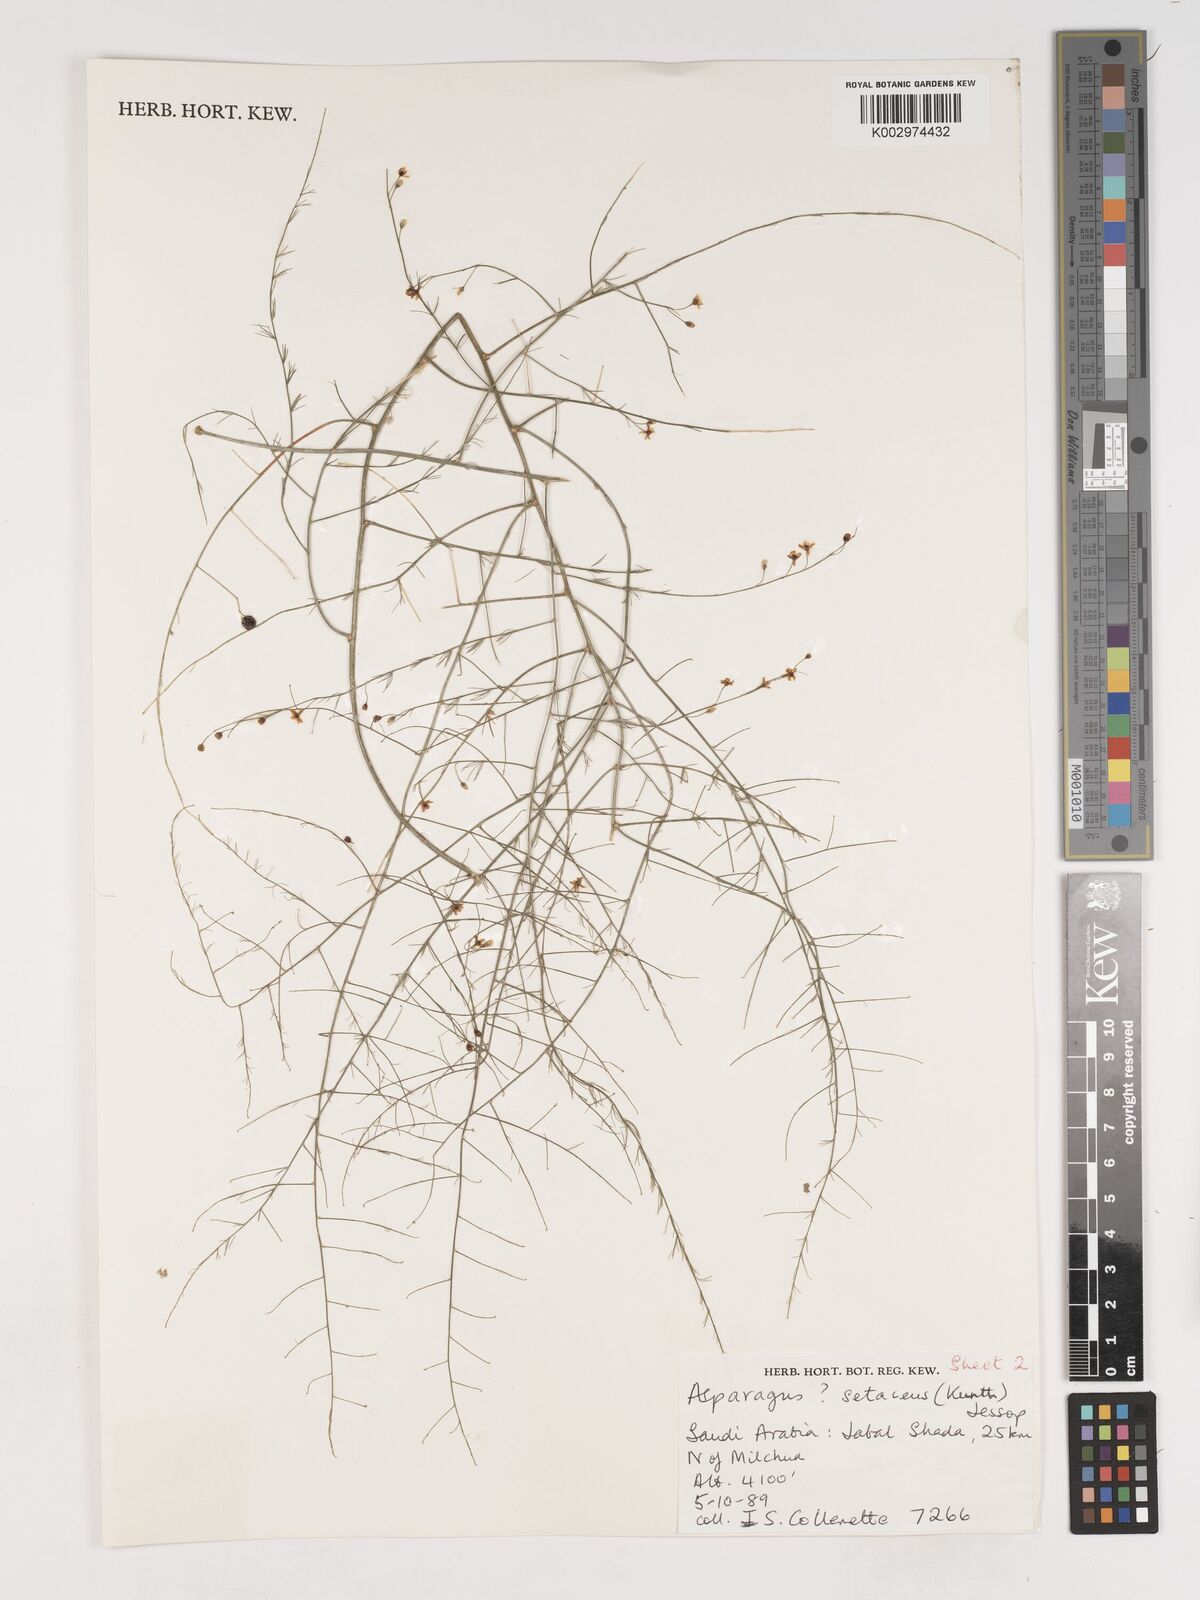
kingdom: Plantae
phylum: Tracheophyta
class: Liliopsida
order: Asparagales
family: Asparagaceae
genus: Asparagus
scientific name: Asparagus africanus
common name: Asparagus-fern
